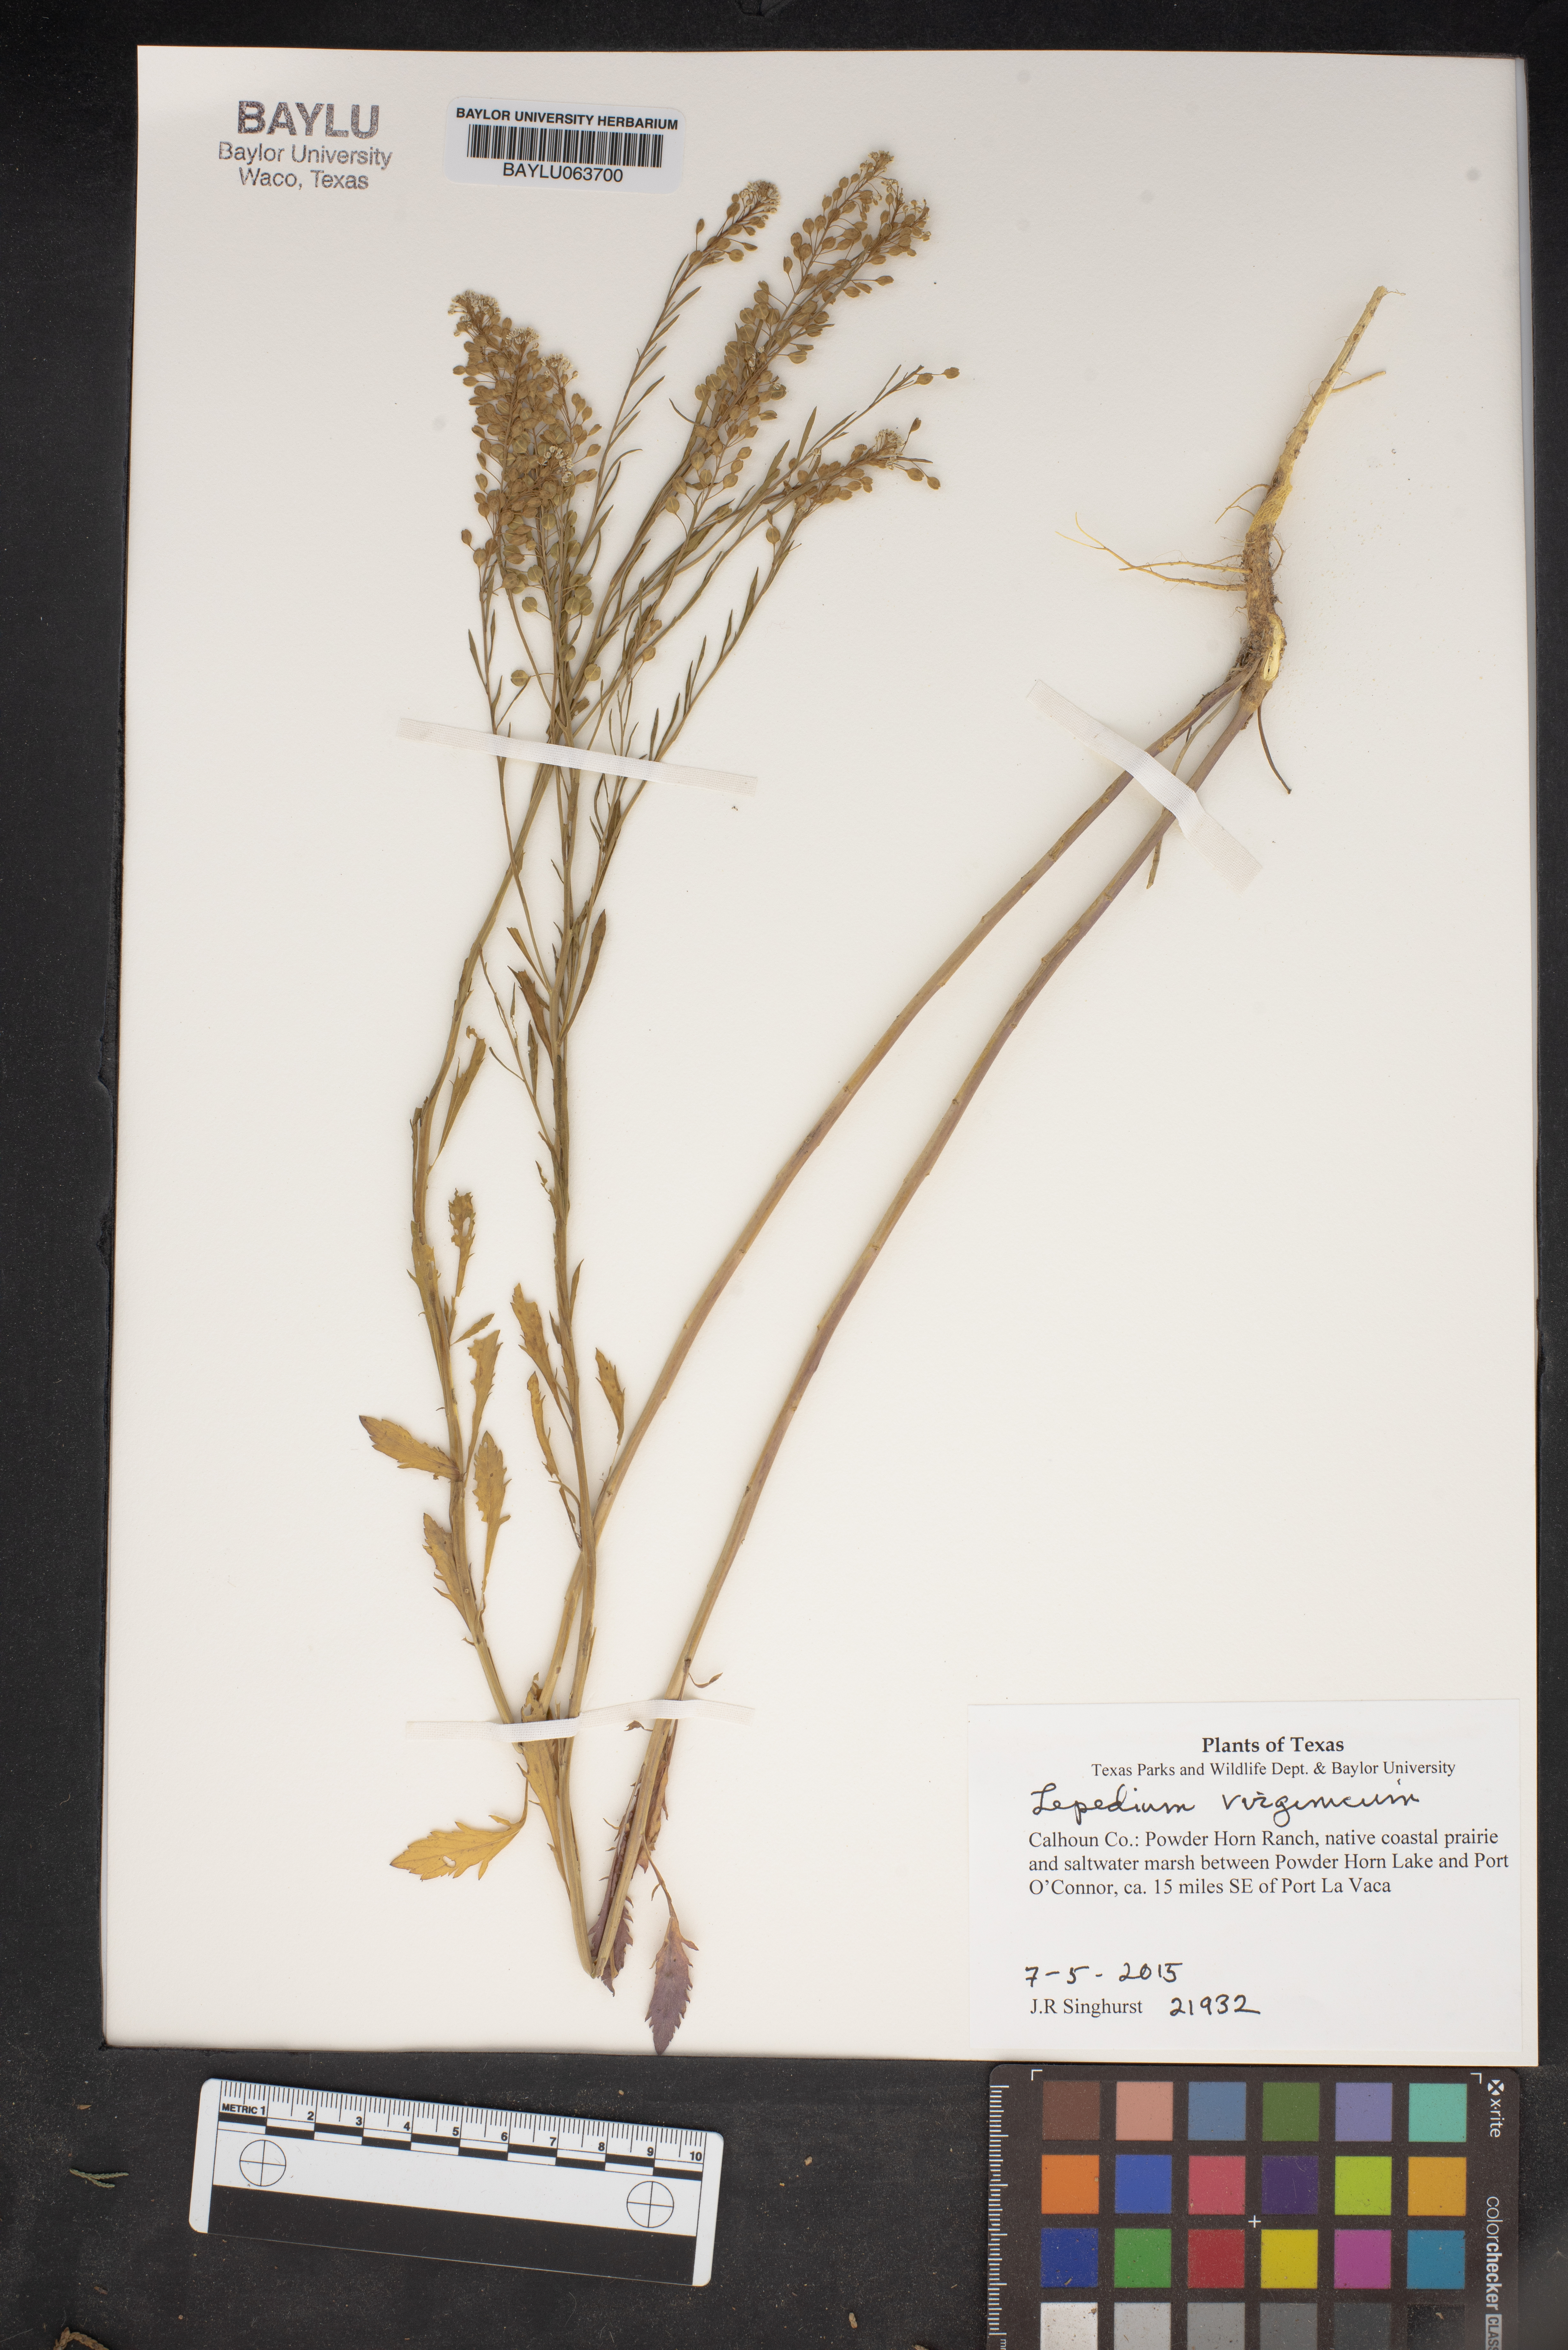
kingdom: Plantae
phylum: Tracheophyta
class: Magnoliopsida
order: Brassicales
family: Brassicaceae
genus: Lepidium
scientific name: Lepidium virginicum
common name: Least pepperwort
